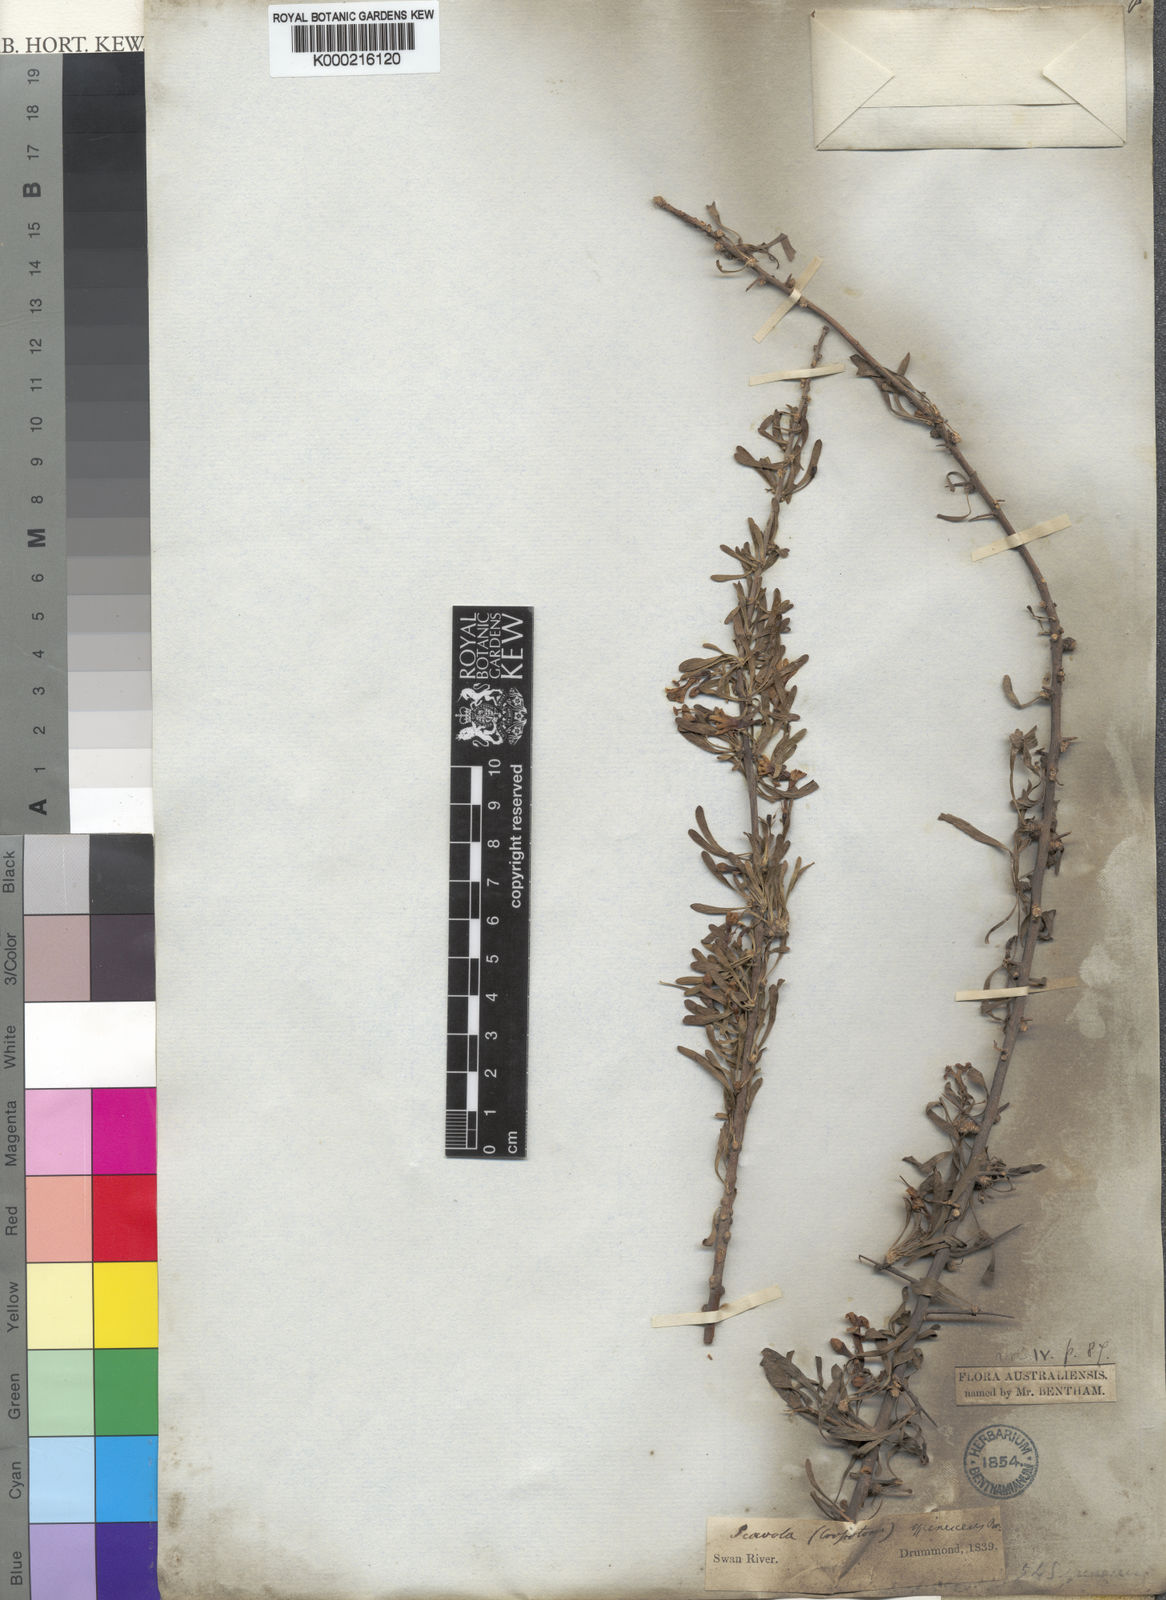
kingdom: Plantae
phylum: Tracheophyta
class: Magnoliopsida
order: Asterales
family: Goodeniaceae
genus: Scaevola
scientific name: Scaevola spinescens
